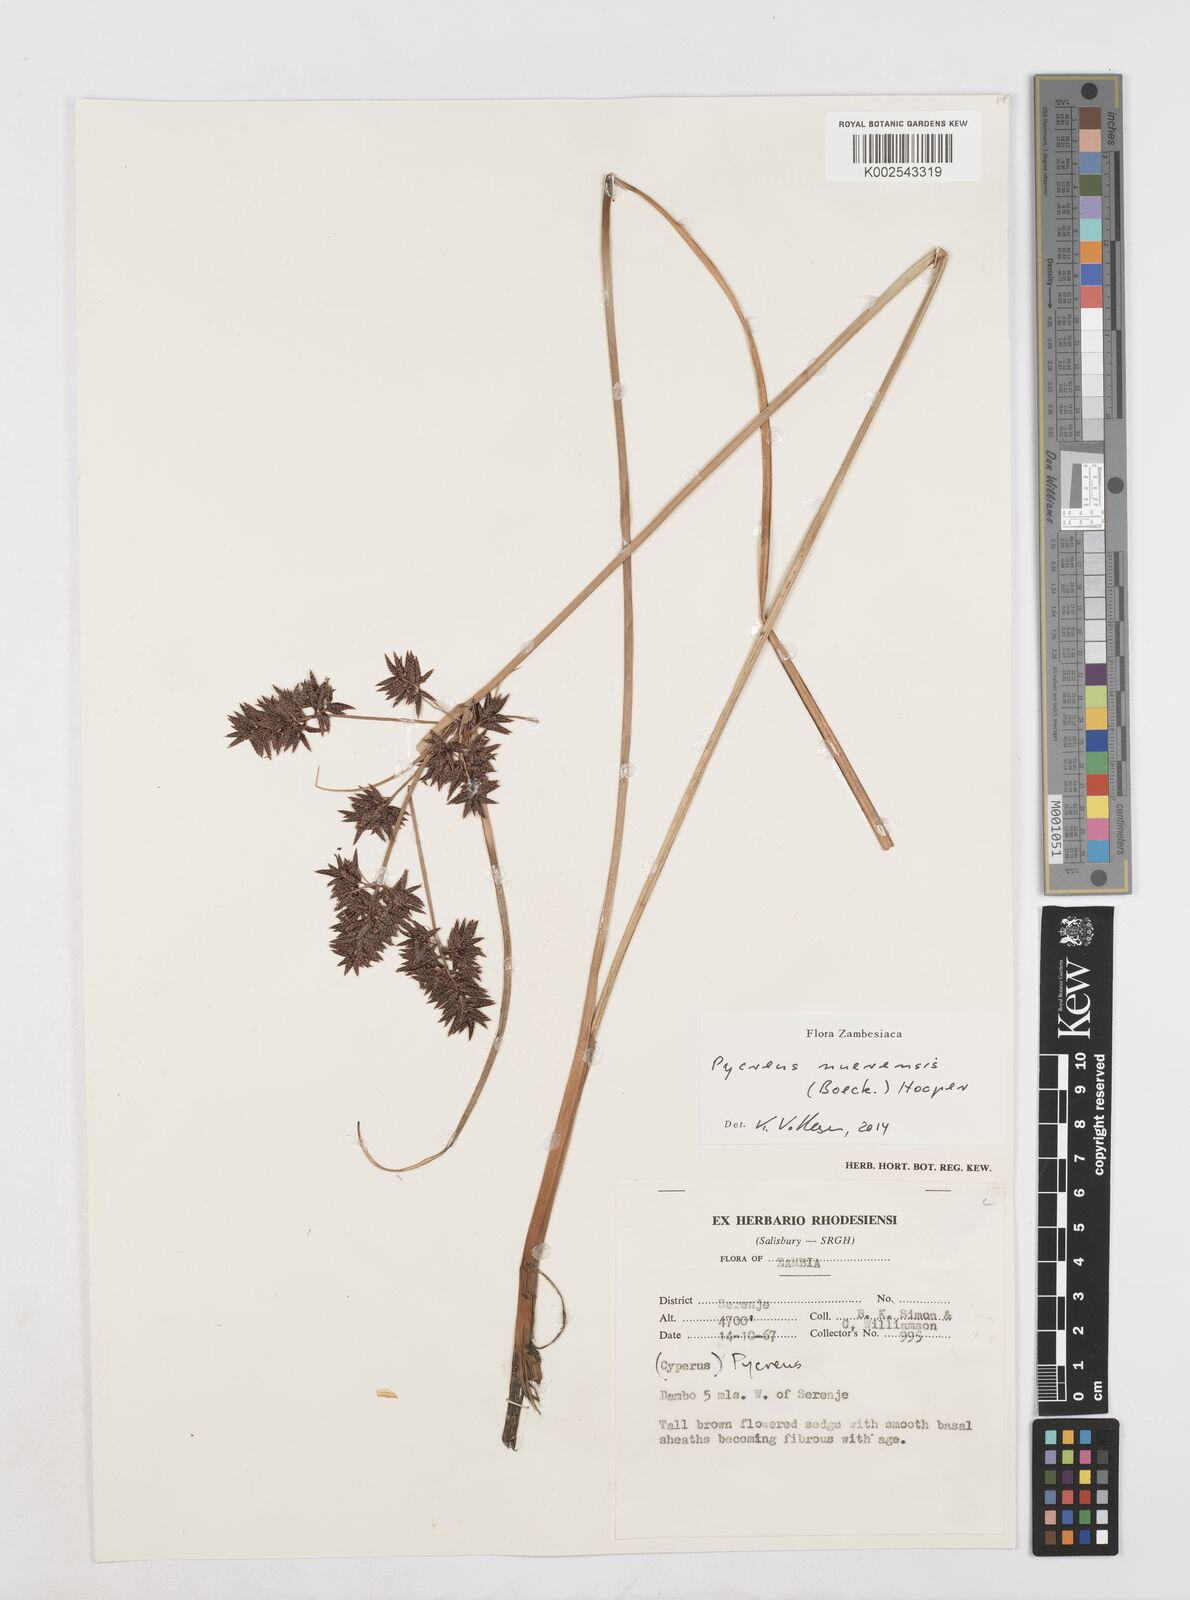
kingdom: Plantae
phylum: Tracheophyta
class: Liliopsida
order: Poales
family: Cyperaceae
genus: Cyperus
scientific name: Cyperus nuerensis
